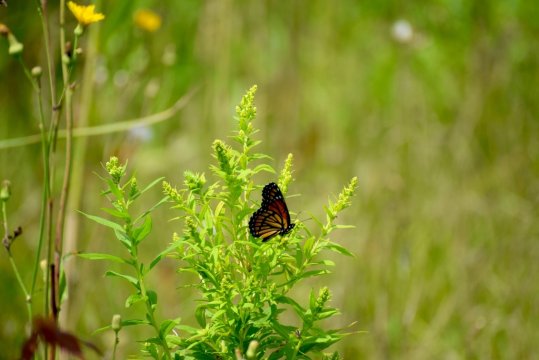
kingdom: Animalia
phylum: Arthropoda
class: Insecta
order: Lepidoptera
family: Nymphalidae
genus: Limenitis
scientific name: Limenitis archippus
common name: Viceroy
